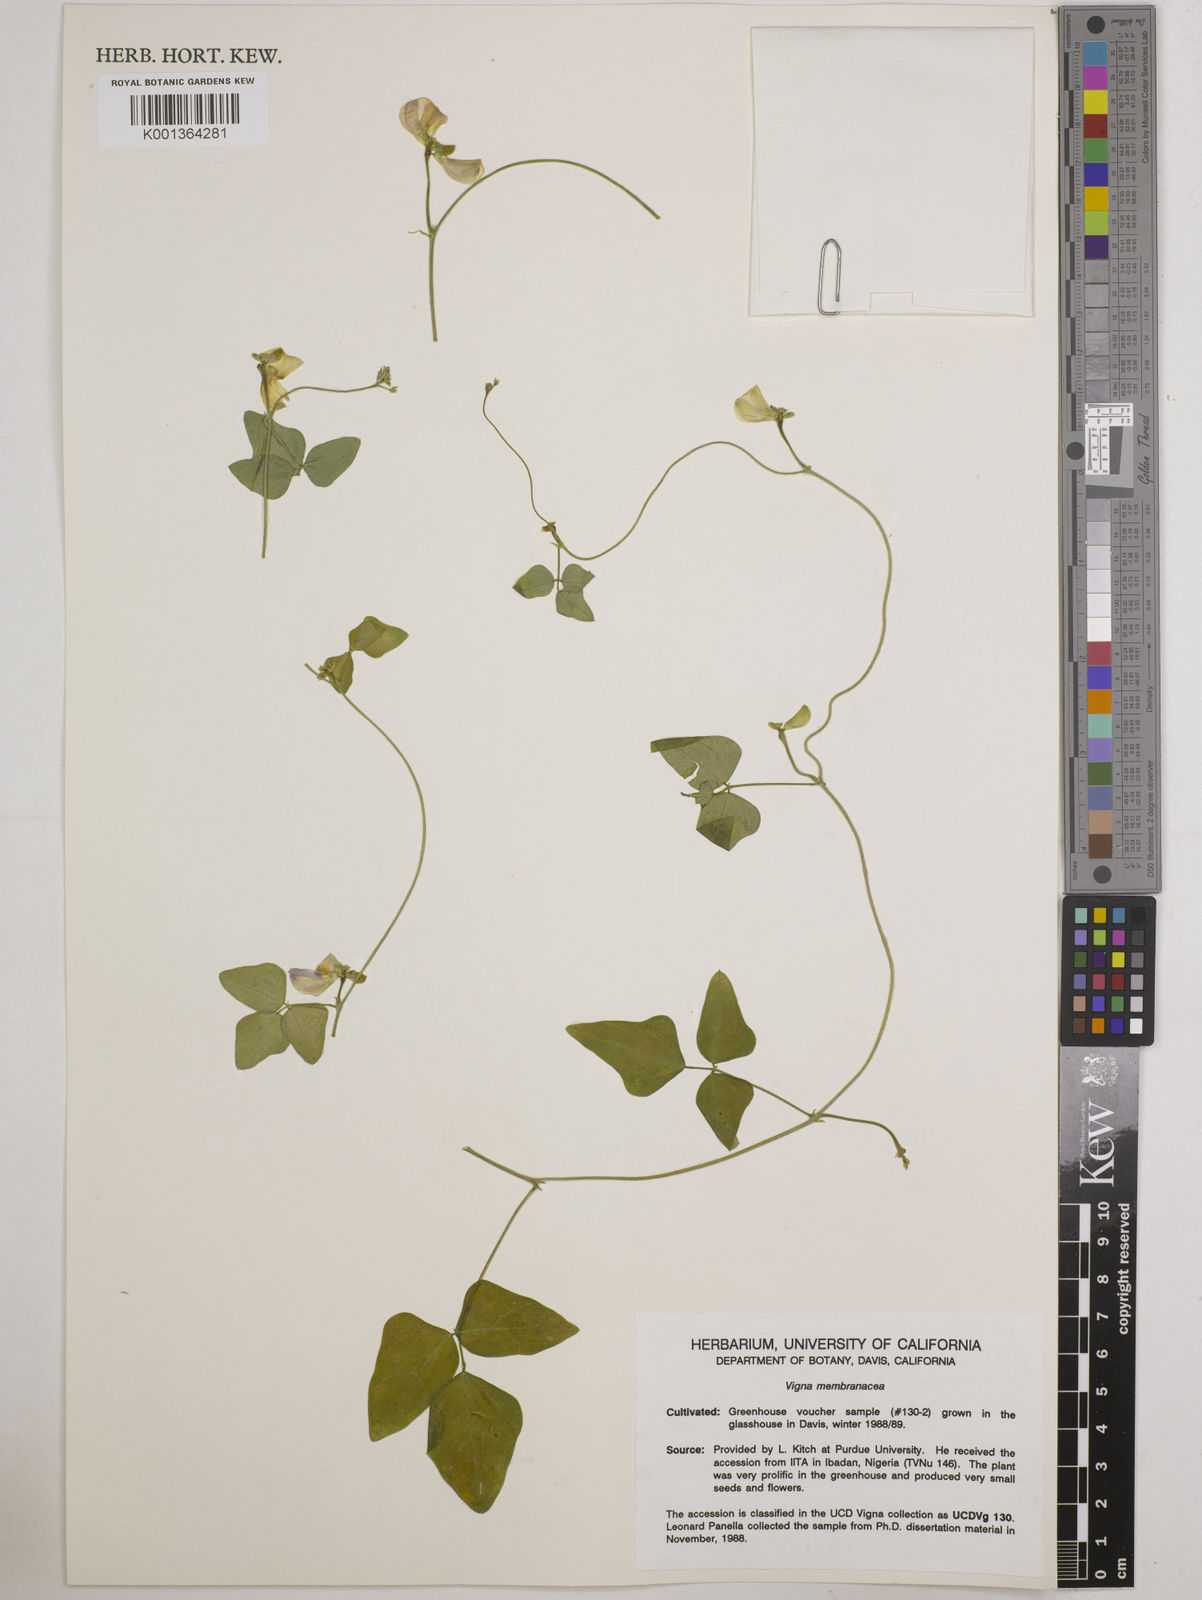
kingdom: Plantae
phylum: Tracheophyta
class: Magnoliopsida
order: Fabales
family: Fabaceae
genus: Vigna
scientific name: Vigna
